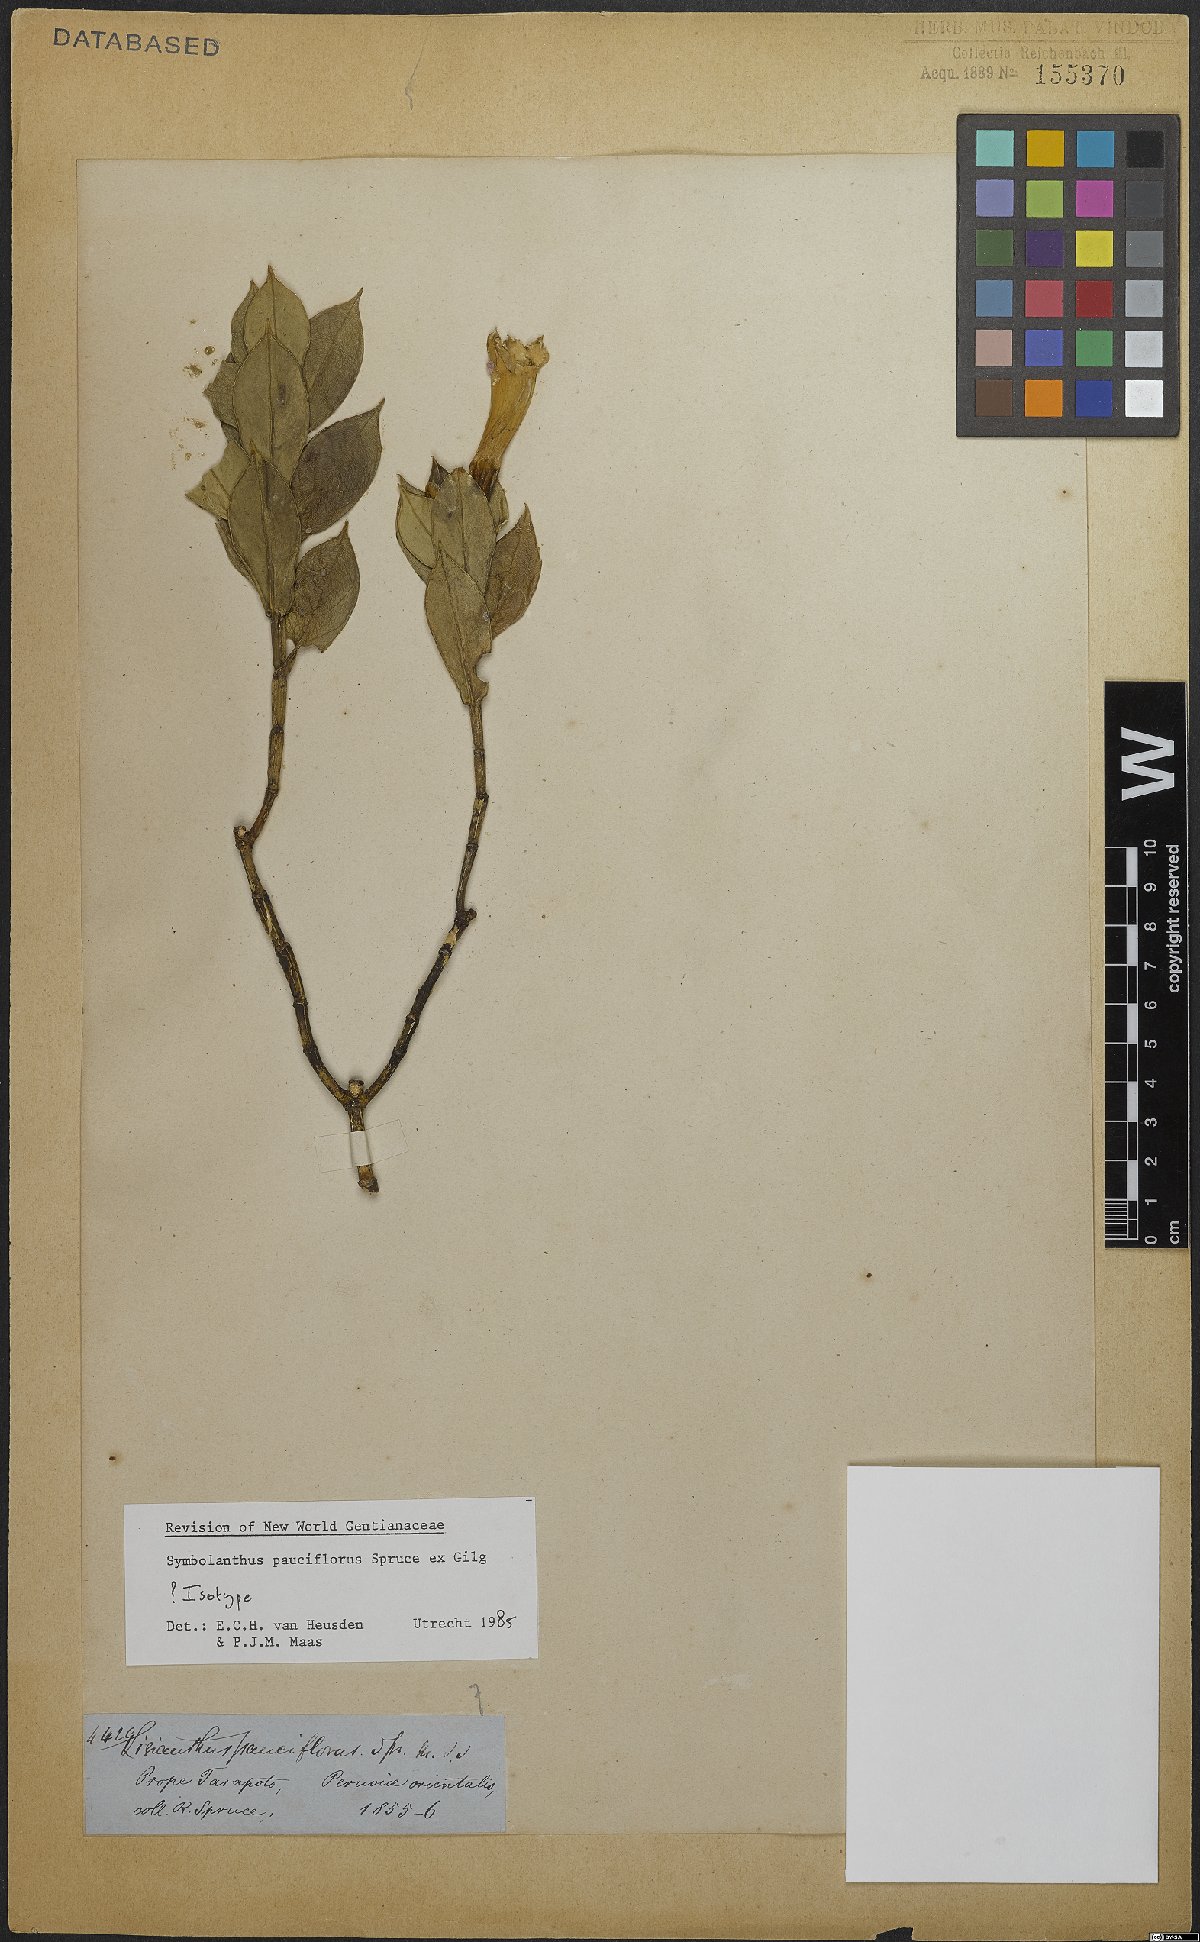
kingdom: Plantae
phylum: Tracheophyta
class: Magnoliopsida
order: Gentianales
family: Gentianaceae
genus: Symbolanthus
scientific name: Symbolanthus pauciflorus
